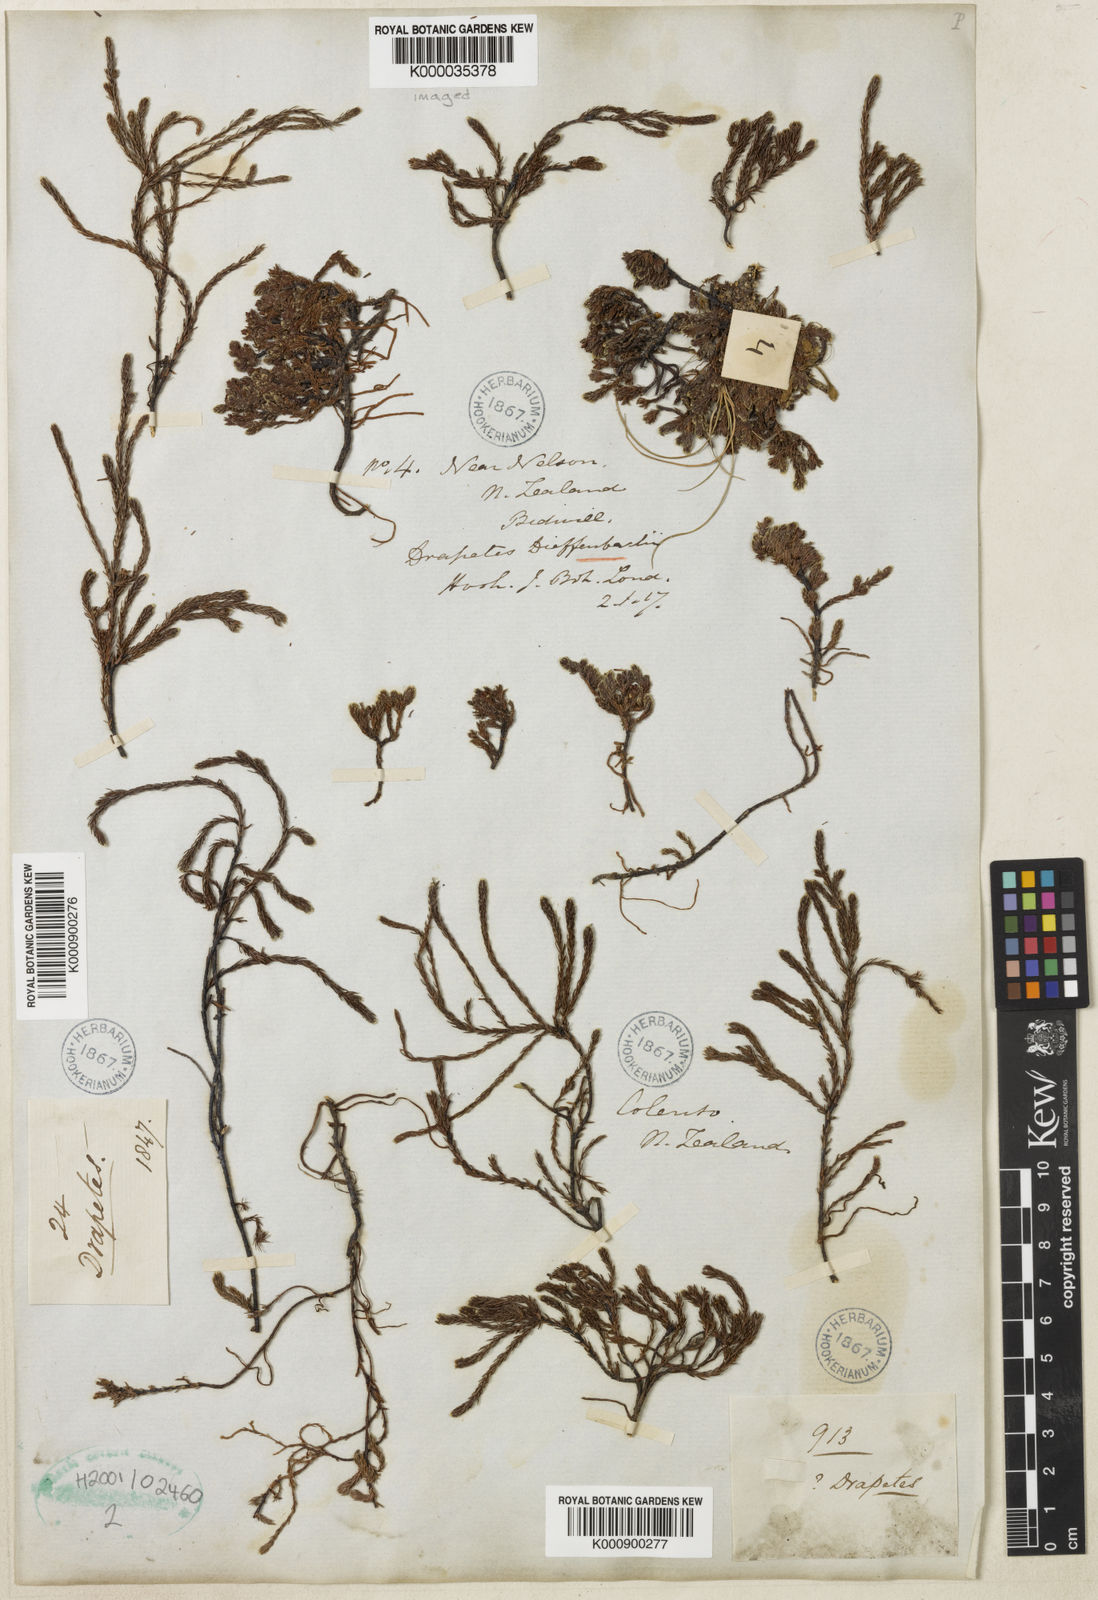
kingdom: Plantae
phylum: Tracheophyta
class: Magnoliopsida
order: Malvales
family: Thymelaeaceae
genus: Kelleria
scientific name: Kelleria dieffenbachii
